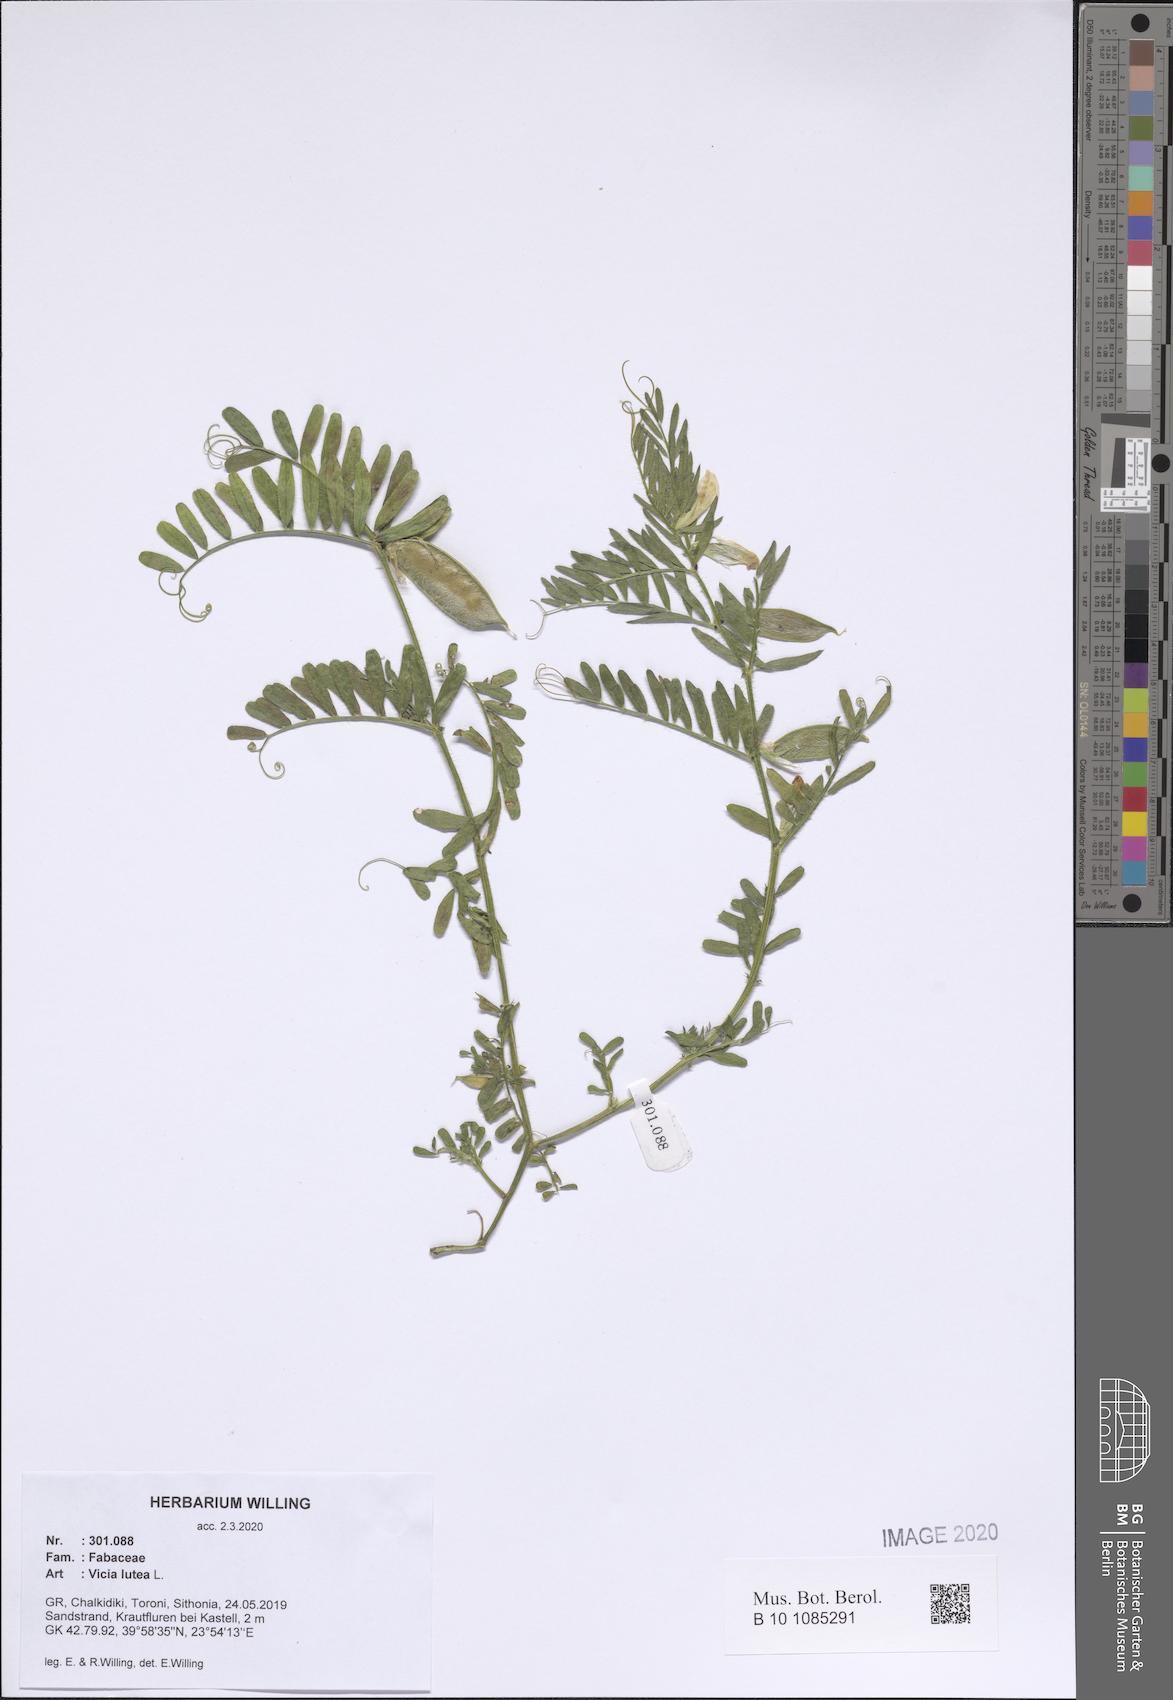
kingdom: Plantae
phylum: Tracheophyta
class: Magnoliopsida
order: Fabales
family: Fabaceae
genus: Vicia
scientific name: Vicia lutea
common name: Smooth yellow vetch
